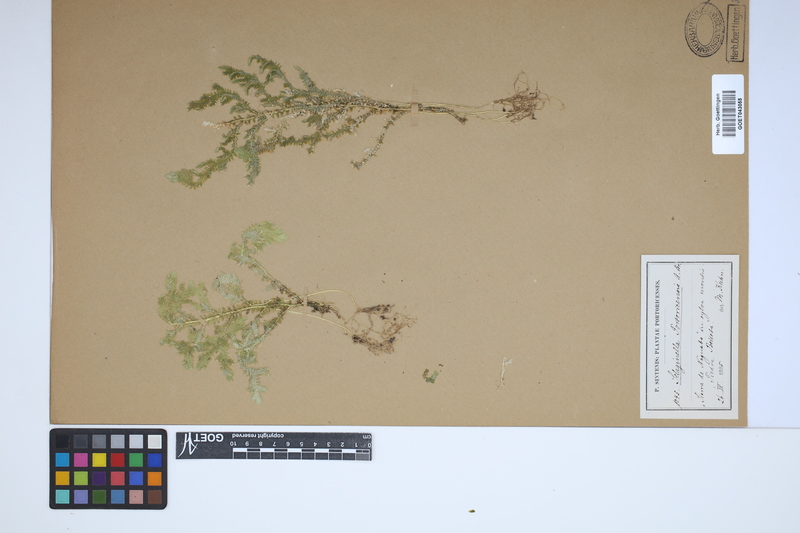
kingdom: Plantae
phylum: Tracheophyta
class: Lycopodiopsida
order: Selaginellales
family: Selaginellaceae
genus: Selaginella
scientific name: Selaginella substipitata
